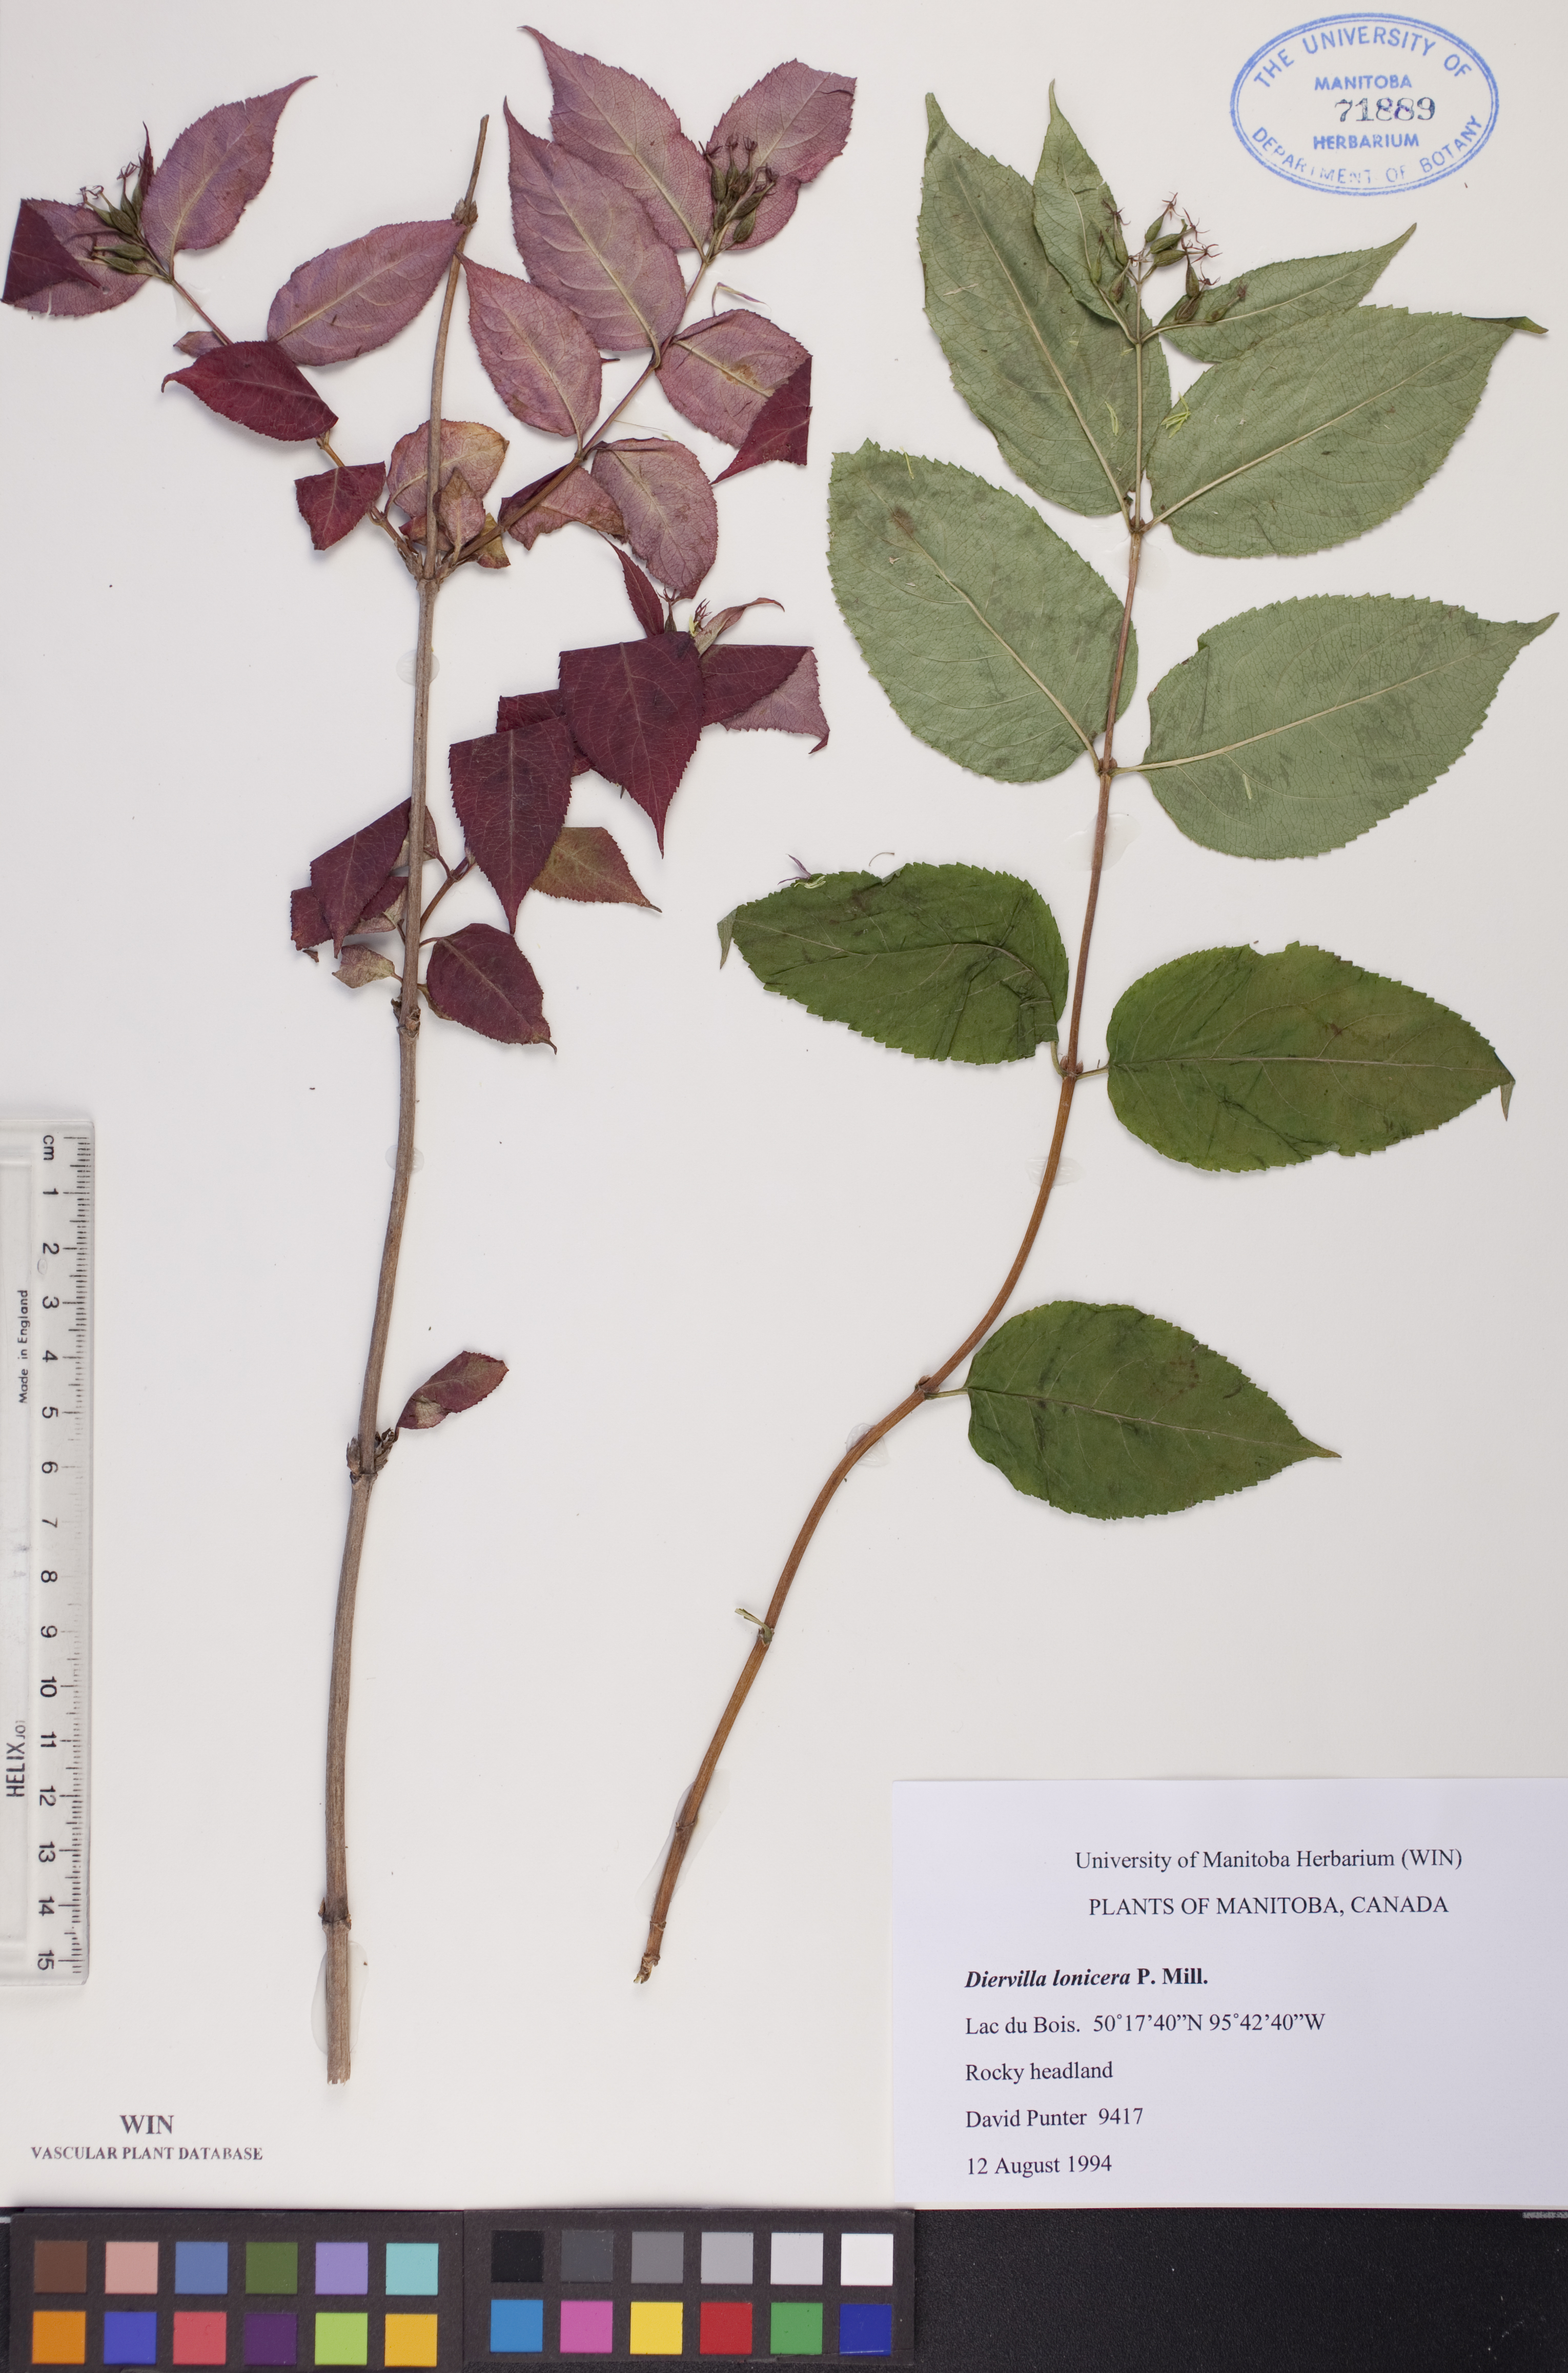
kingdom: Plantae
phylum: Tracheophyta
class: Magnoliopsida
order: Dipsacales
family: Caprifoliaceae
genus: Diervilla
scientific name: Diervilla lonicera
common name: Bush-honeysuckle
